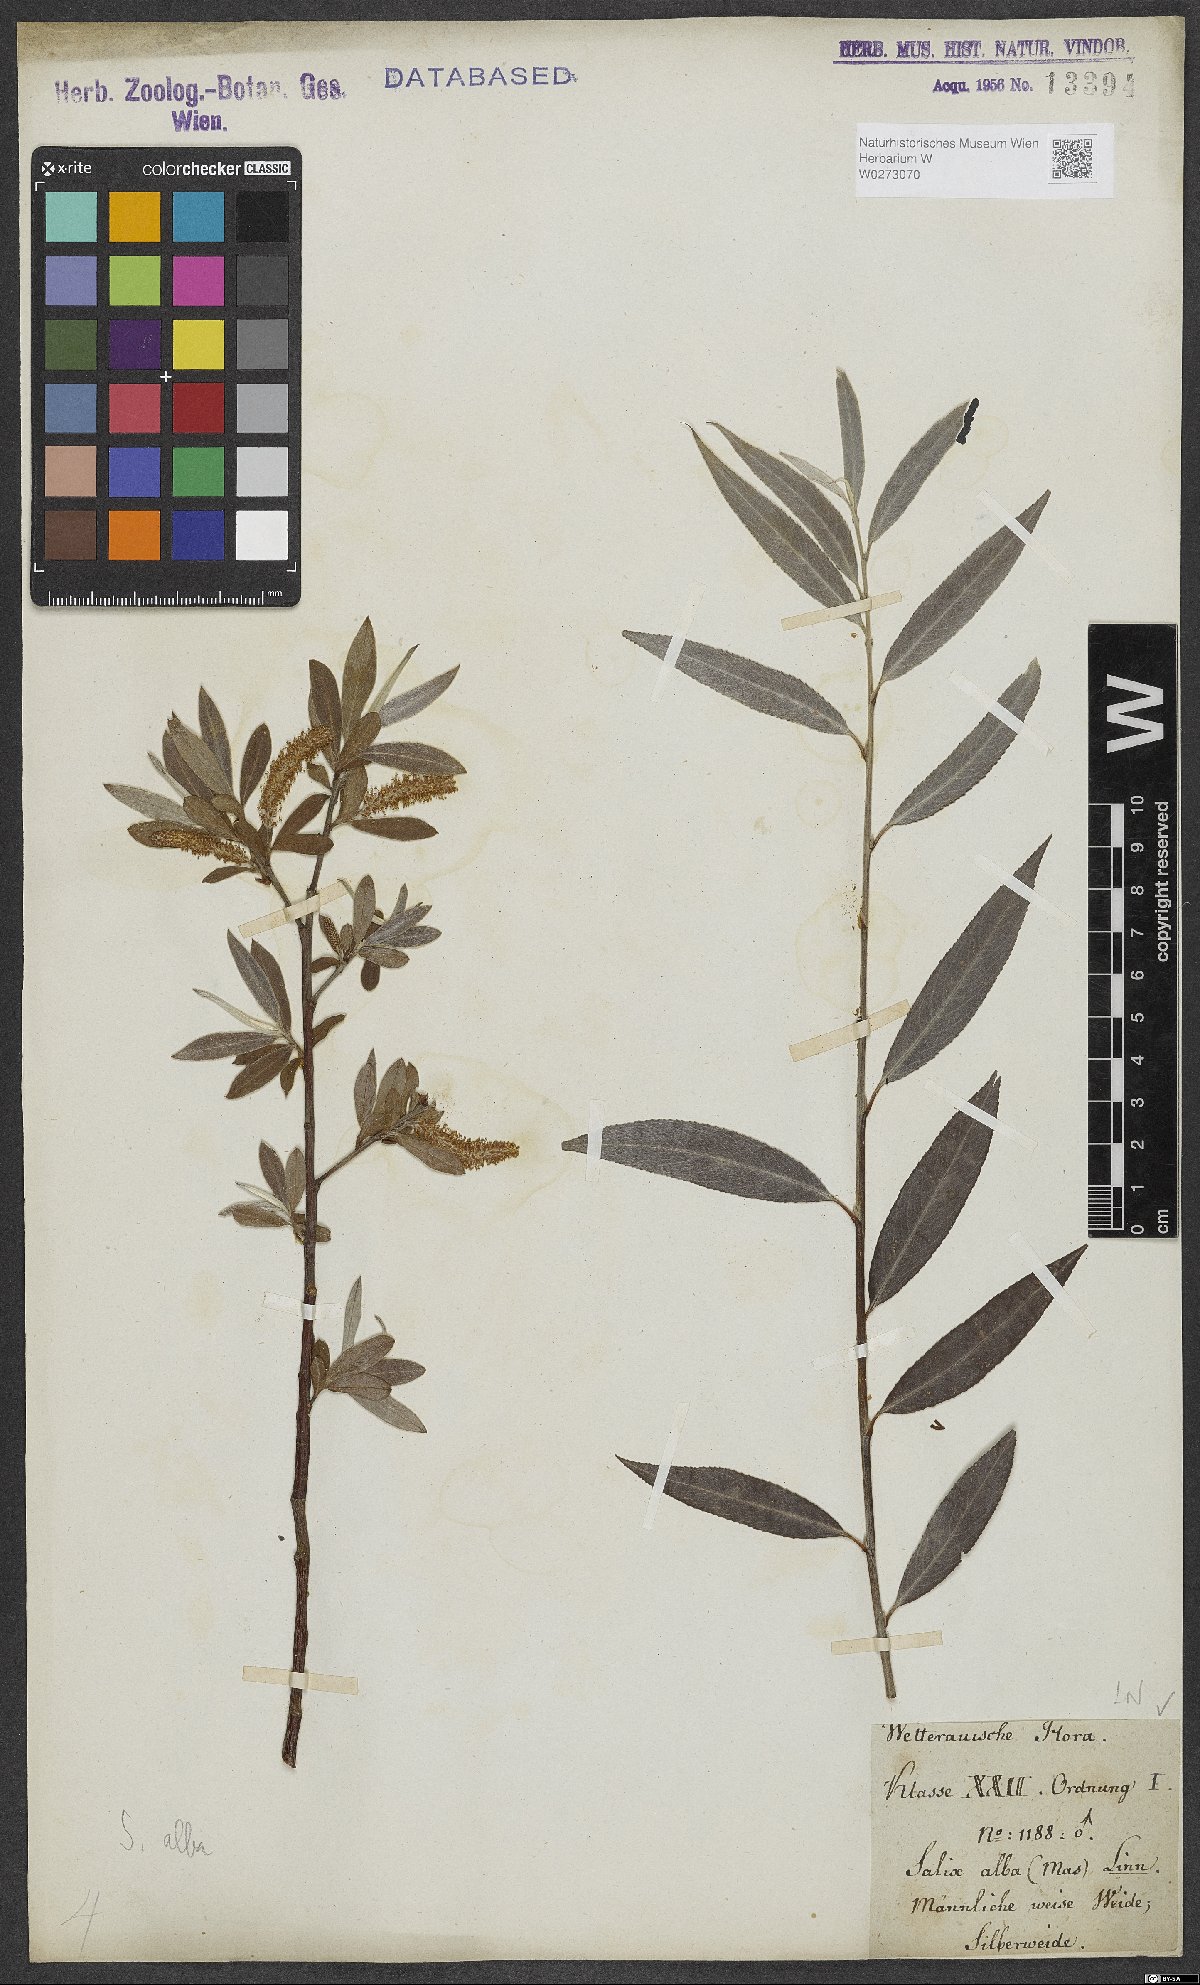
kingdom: Plantae
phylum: Tracheophyta
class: Magnoliopsida
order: Malpighiales
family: Salicaceae
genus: Salix
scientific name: Salix alba
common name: White willow
